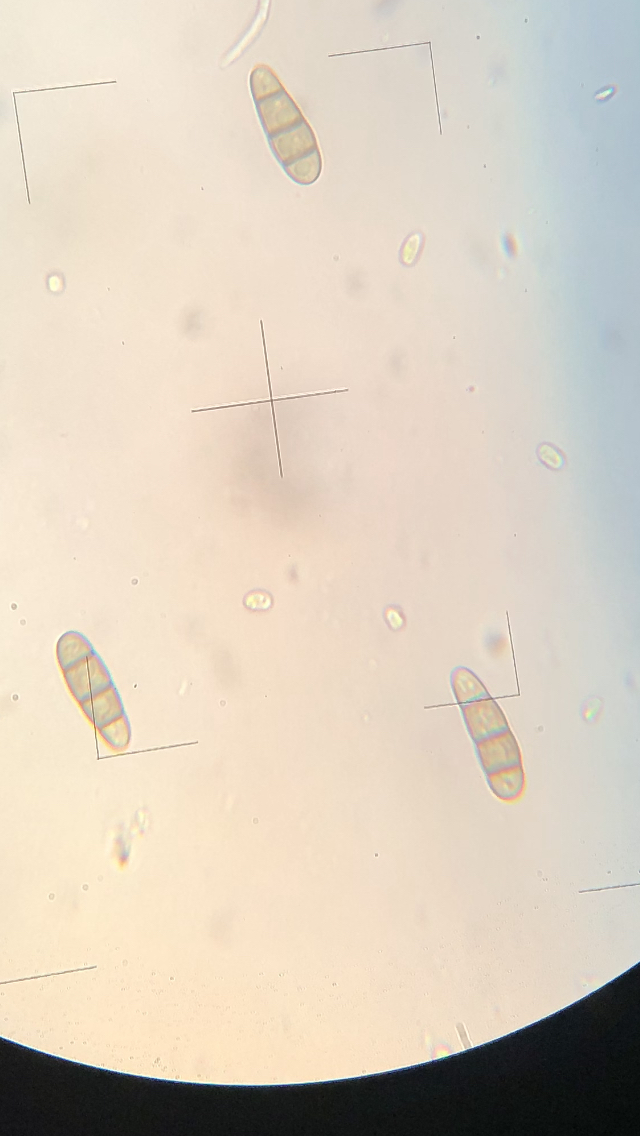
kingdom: Fungi
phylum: Ascomycota
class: Dothideomycetes
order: Hysteriales
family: Hysteriaceae
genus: Hysterium
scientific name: Hysterium acuminatum
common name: almindelig kulmund
